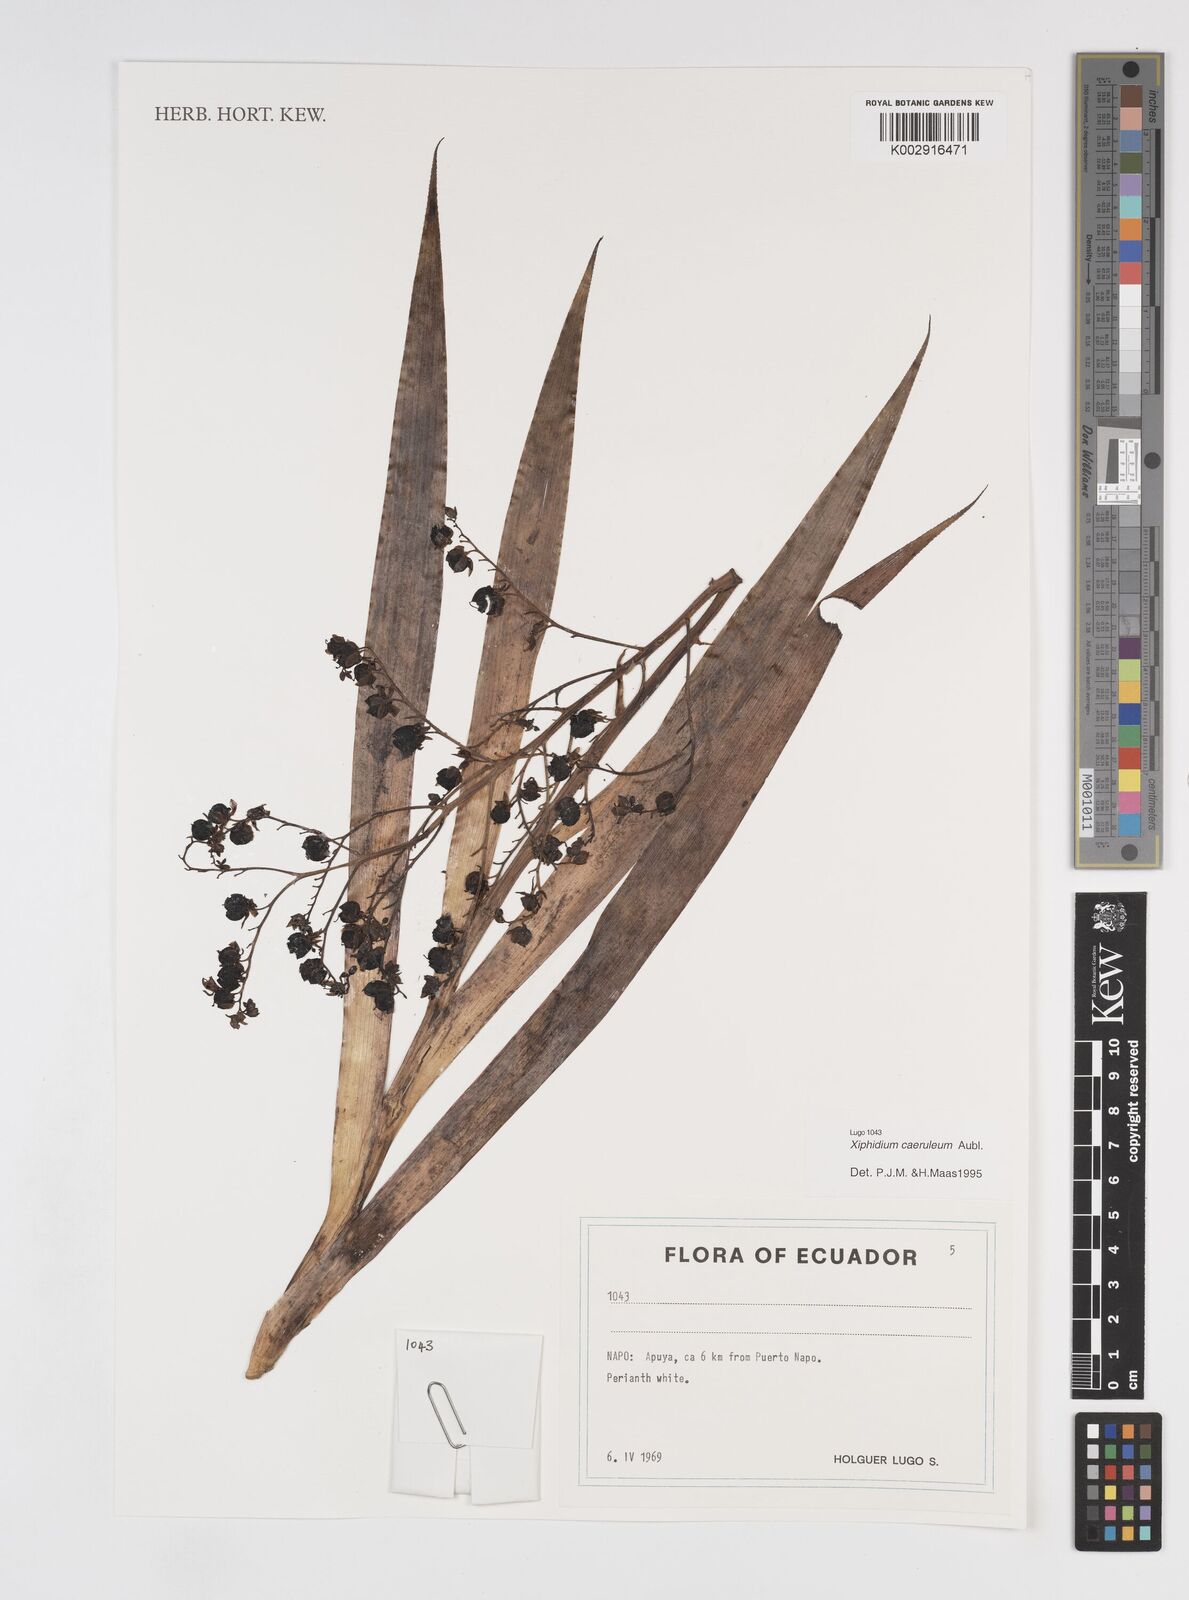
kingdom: Plantae
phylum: Tracheophyta
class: Liliopsida
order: Commelinales
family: Haemodoraceae
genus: Xiphidium
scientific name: Xiphidium caeruleum
